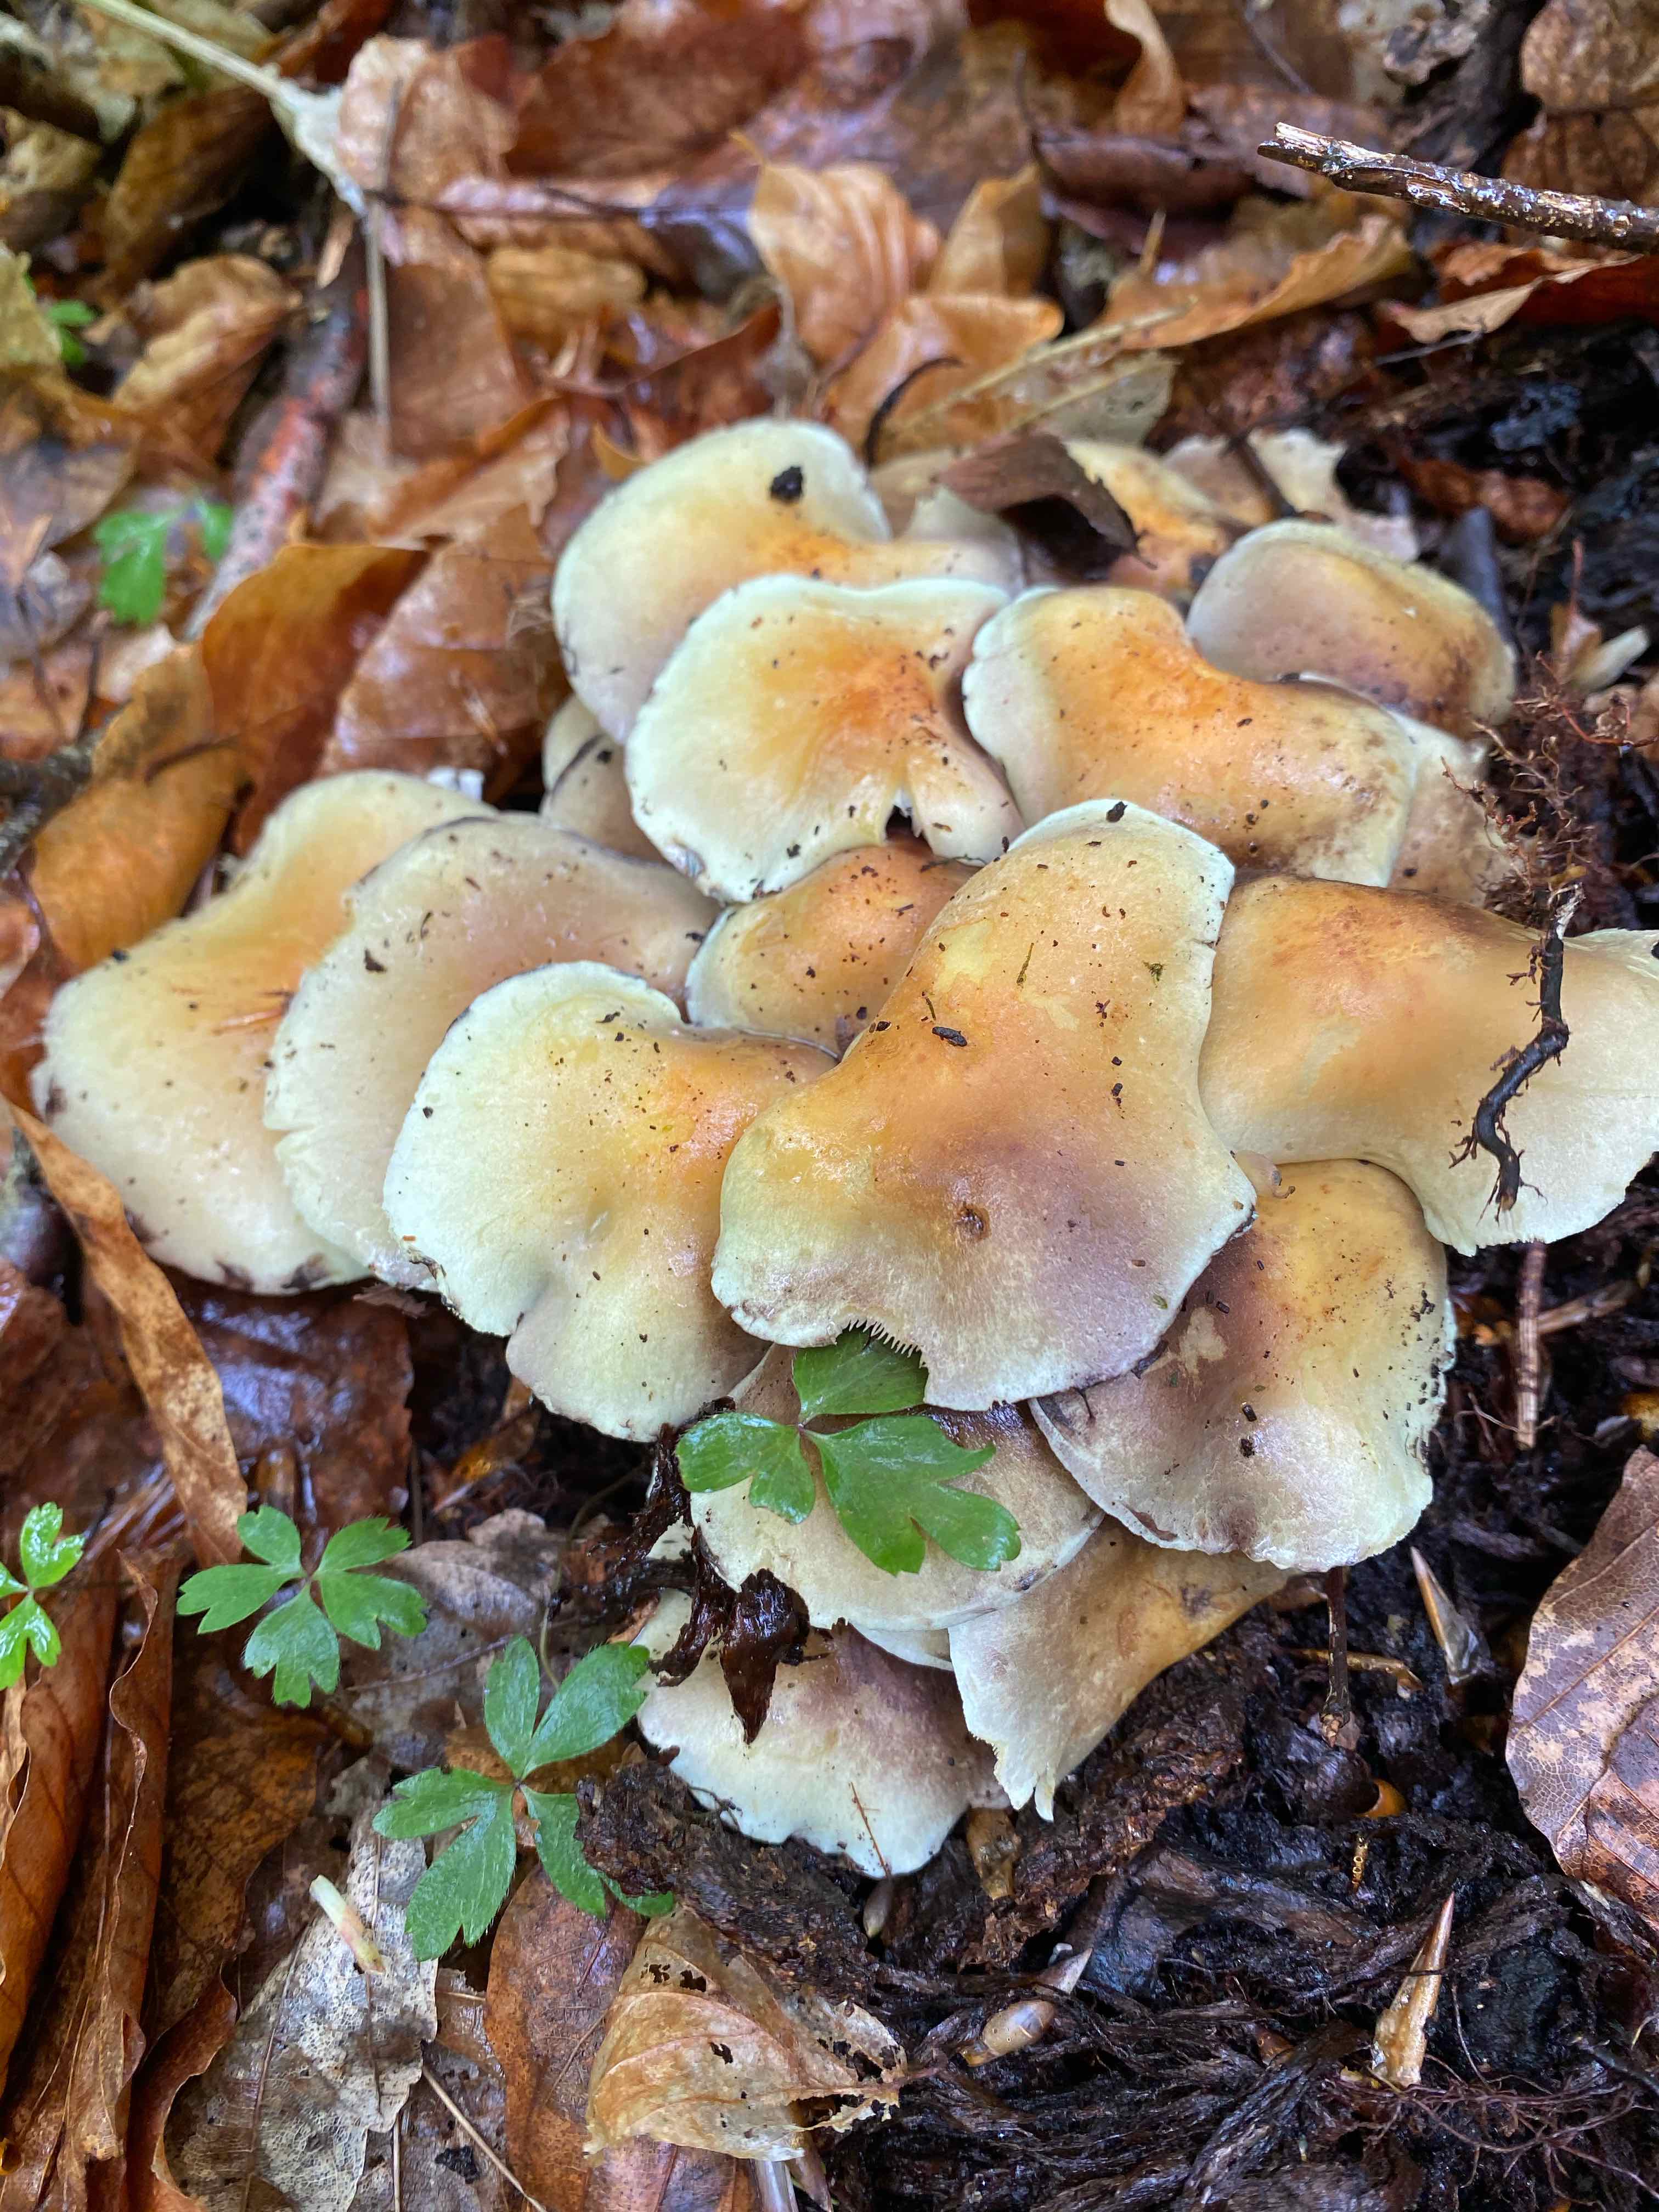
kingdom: Fungi
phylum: Basidiomycota
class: Agaricomycetes
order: Agaricales
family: Strophariaceae
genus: Hypholoma
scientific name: Hypholoma fasciculare
